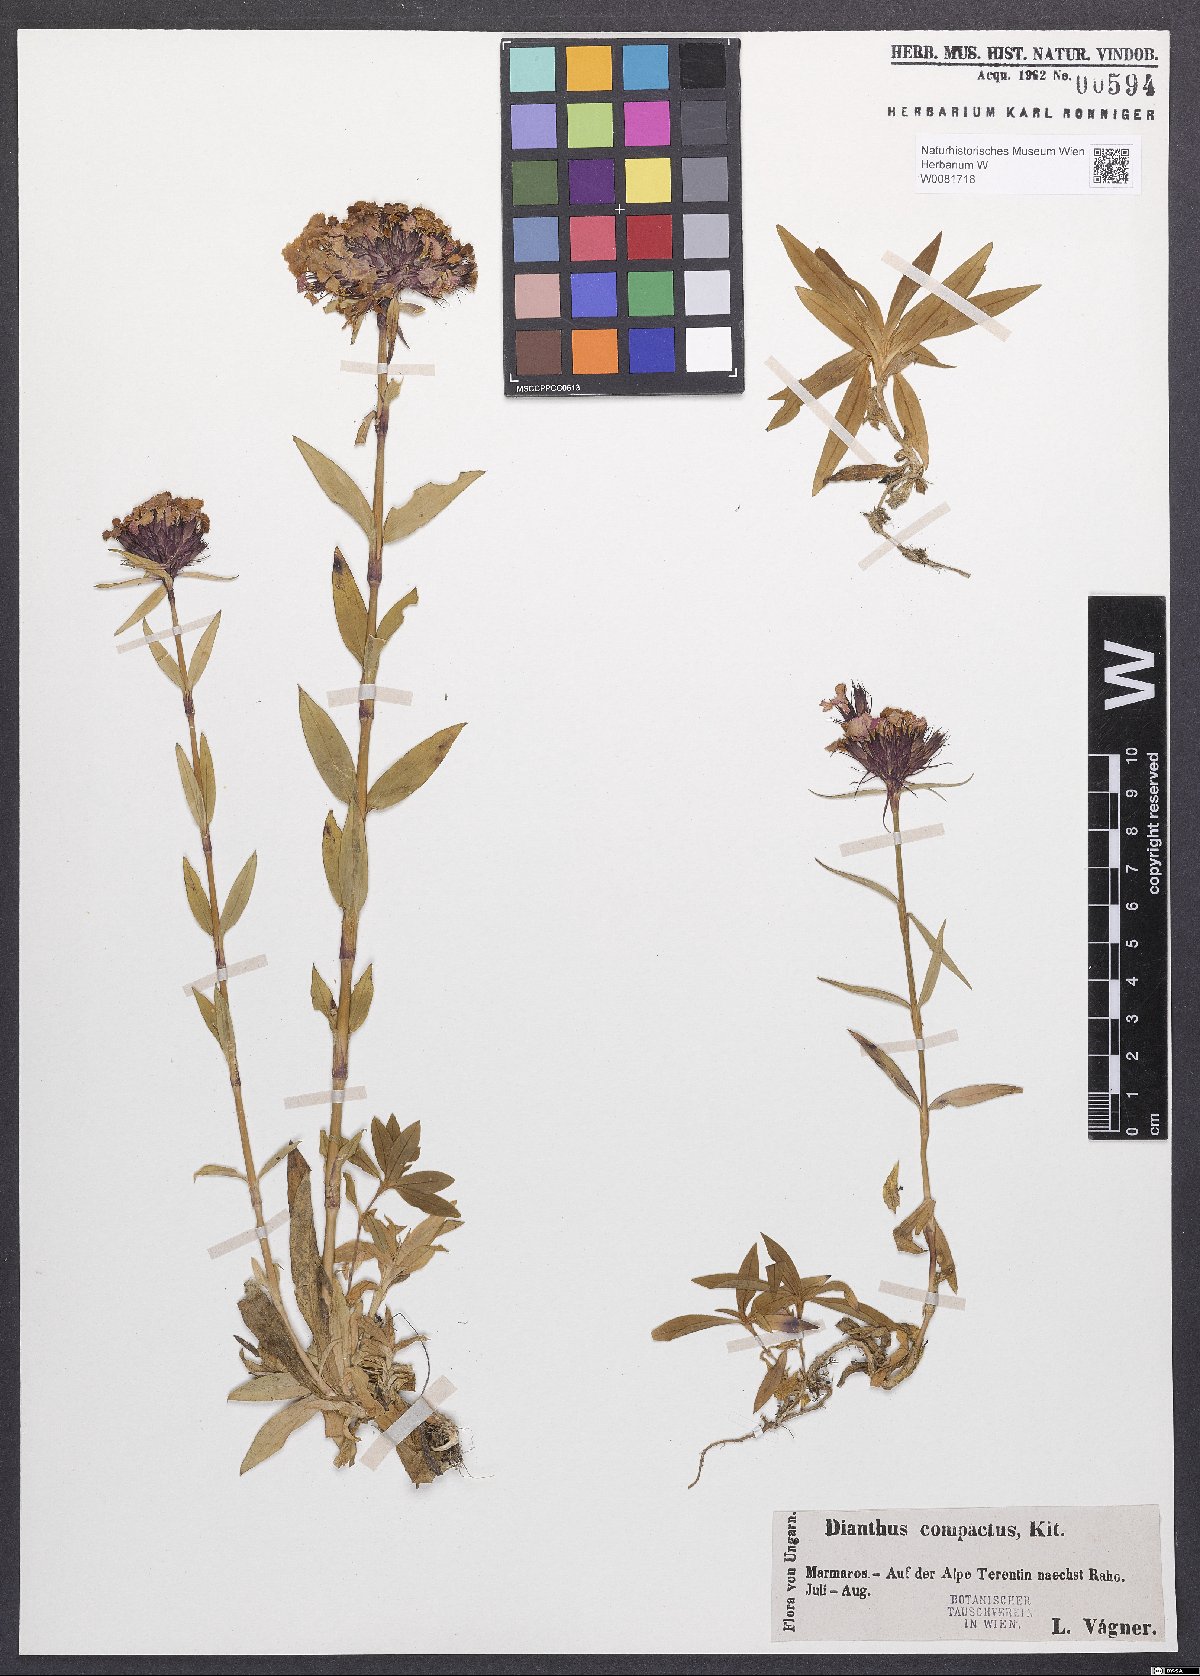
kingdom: Plantae
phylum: Tracheophyta
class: Magnoliopsida
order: Caryophyllales
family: Caryophyllaceae
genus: Dianthus
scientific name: Dianthus barbatus
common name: Sweet-william
